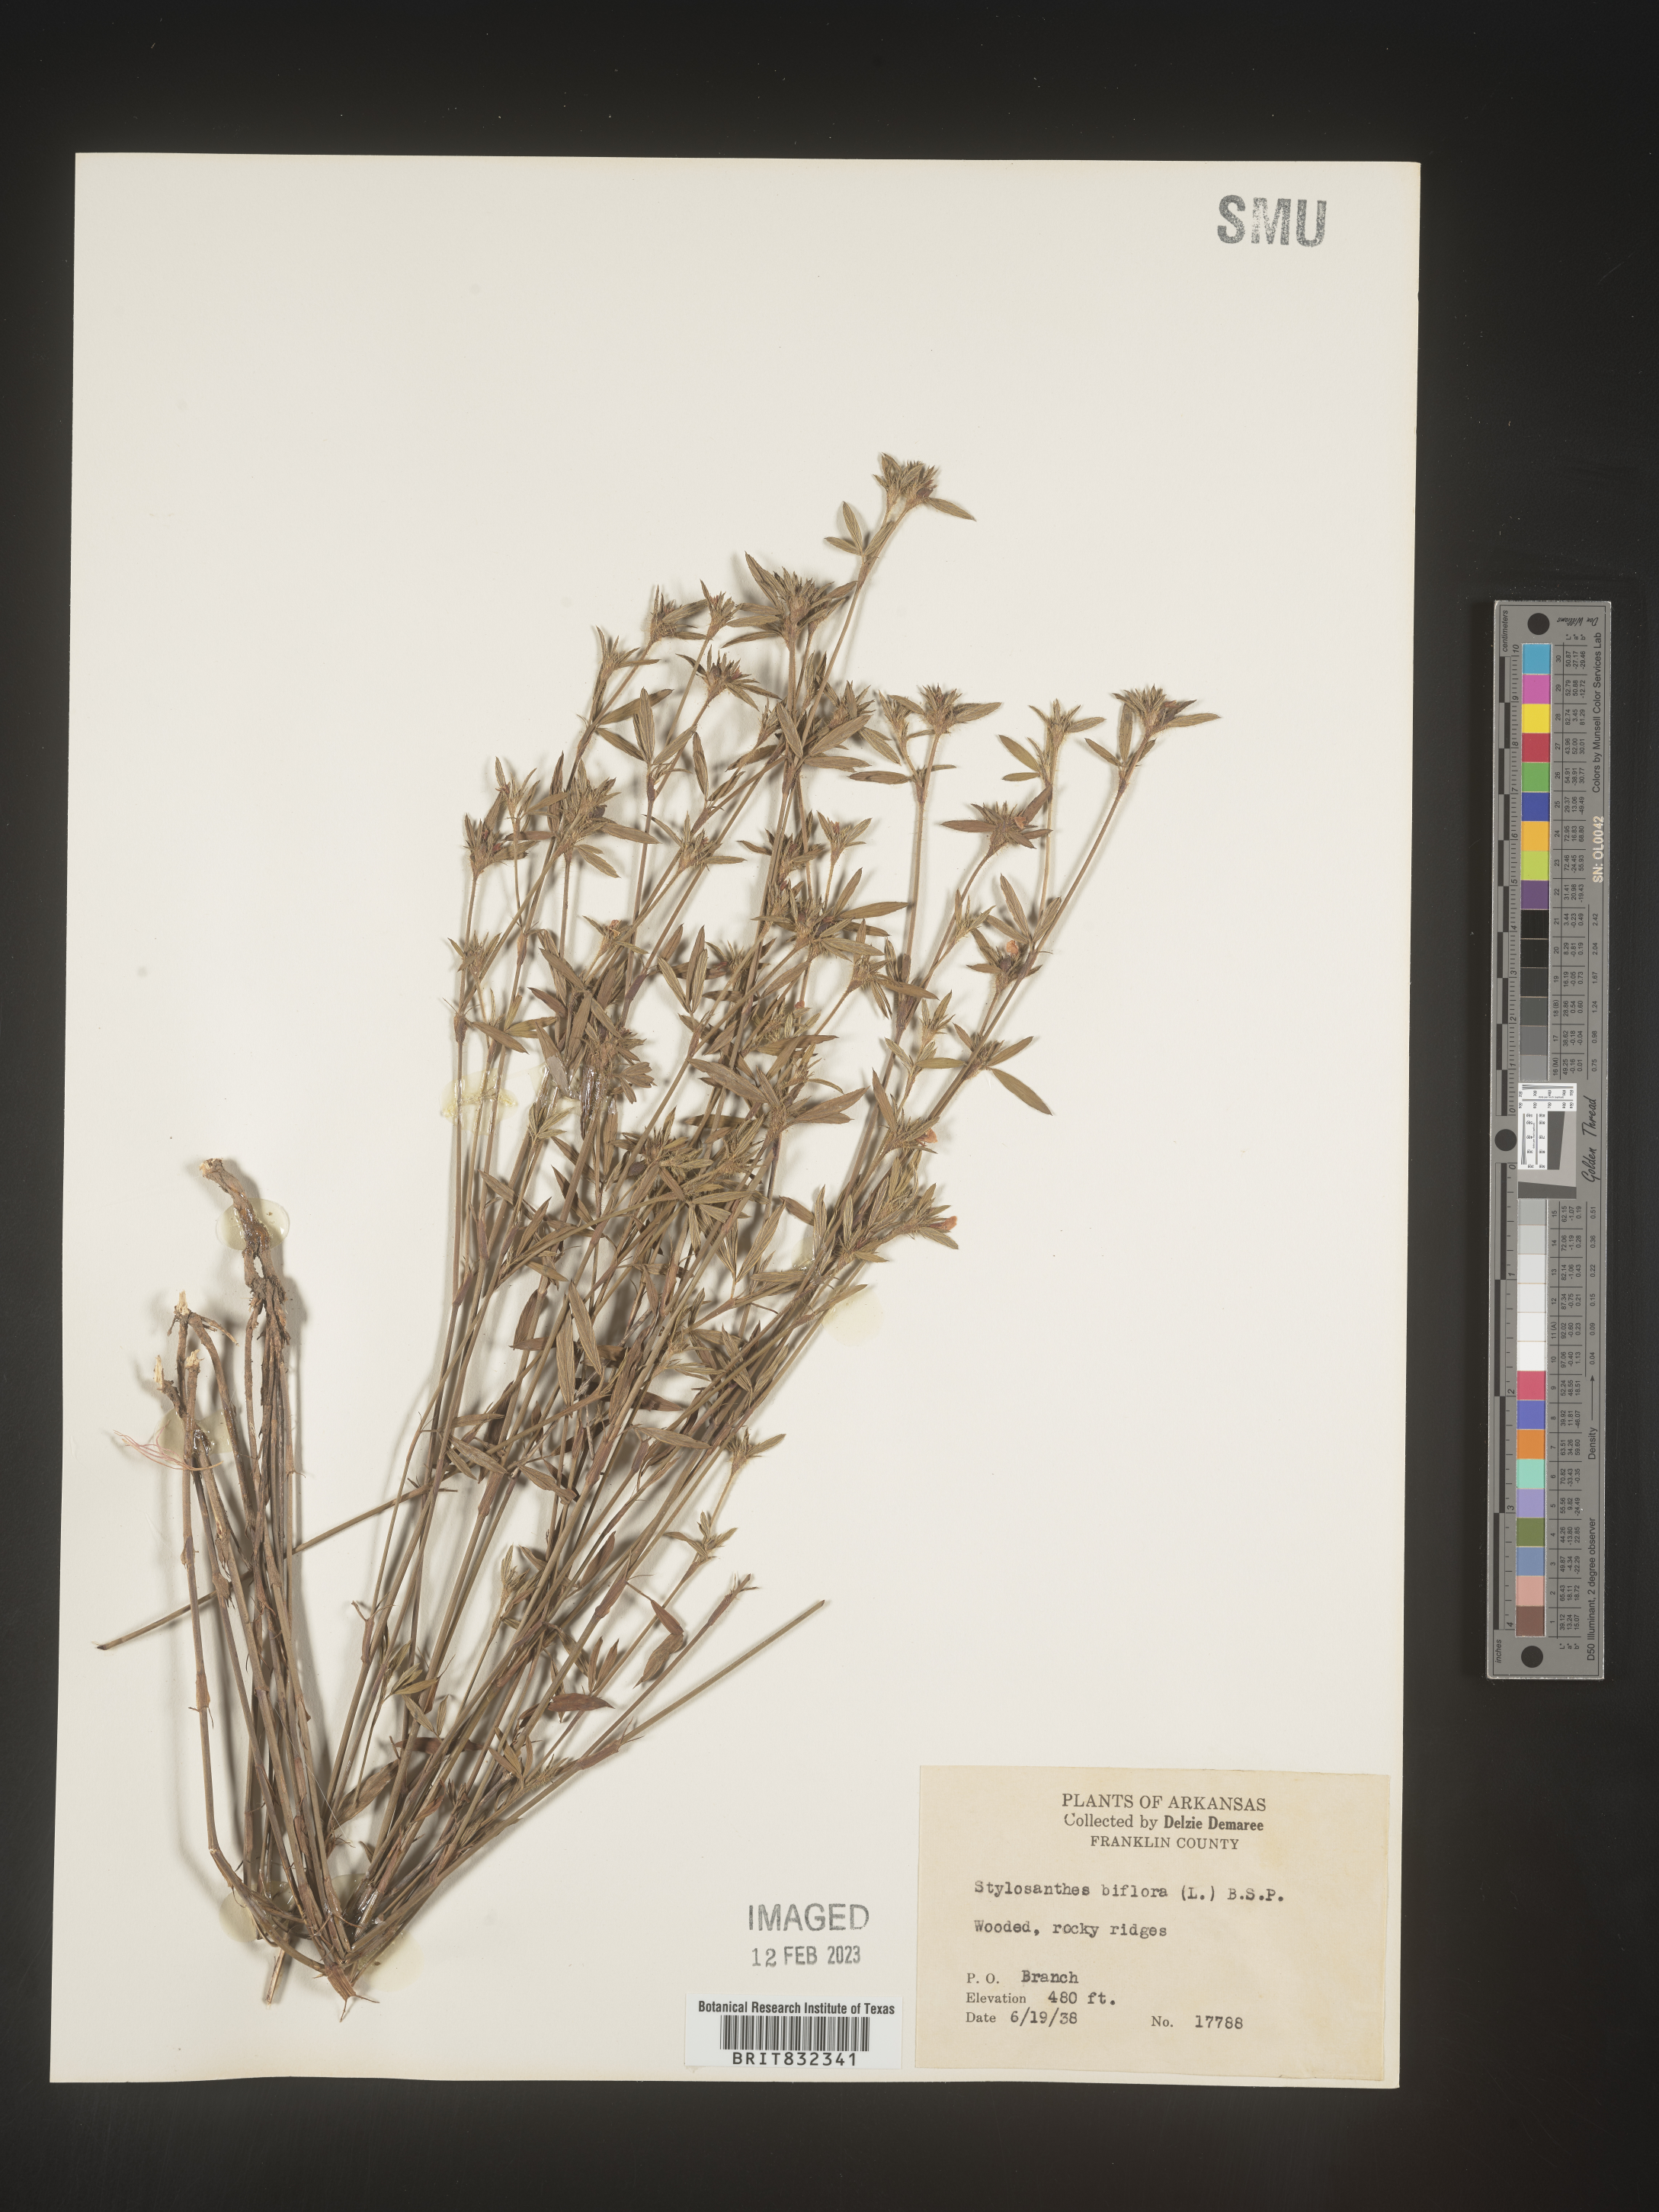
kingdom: Plantae
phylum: Tracheophyta
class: Magnoliopsida
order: Fabales
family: Fabaceae
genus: Stylosanthes
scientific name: Stylosanthes biflora
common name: Two-flower pencil-flower
